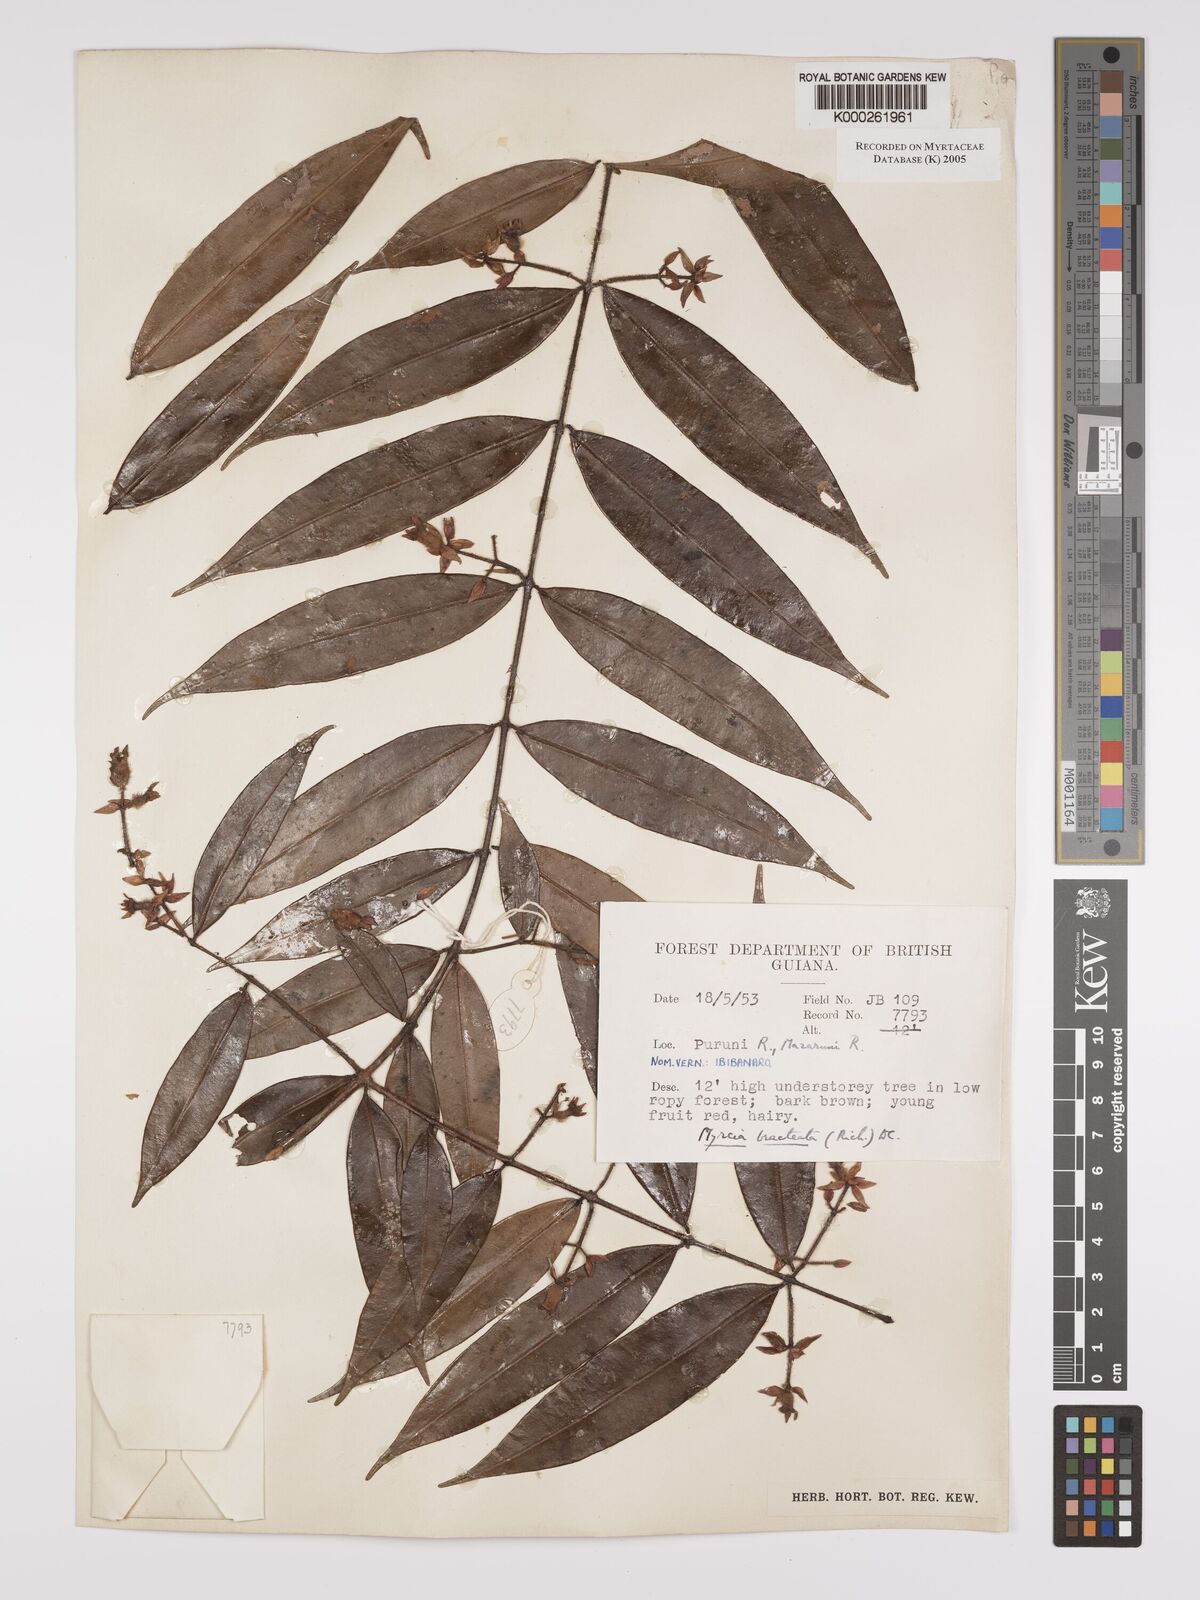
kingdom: Plantae
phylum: Tracheophyta
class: Magnoliopsida
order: Myrtales
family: Myrtaceae
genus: Myrcia
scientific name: Myrcia bracteata
